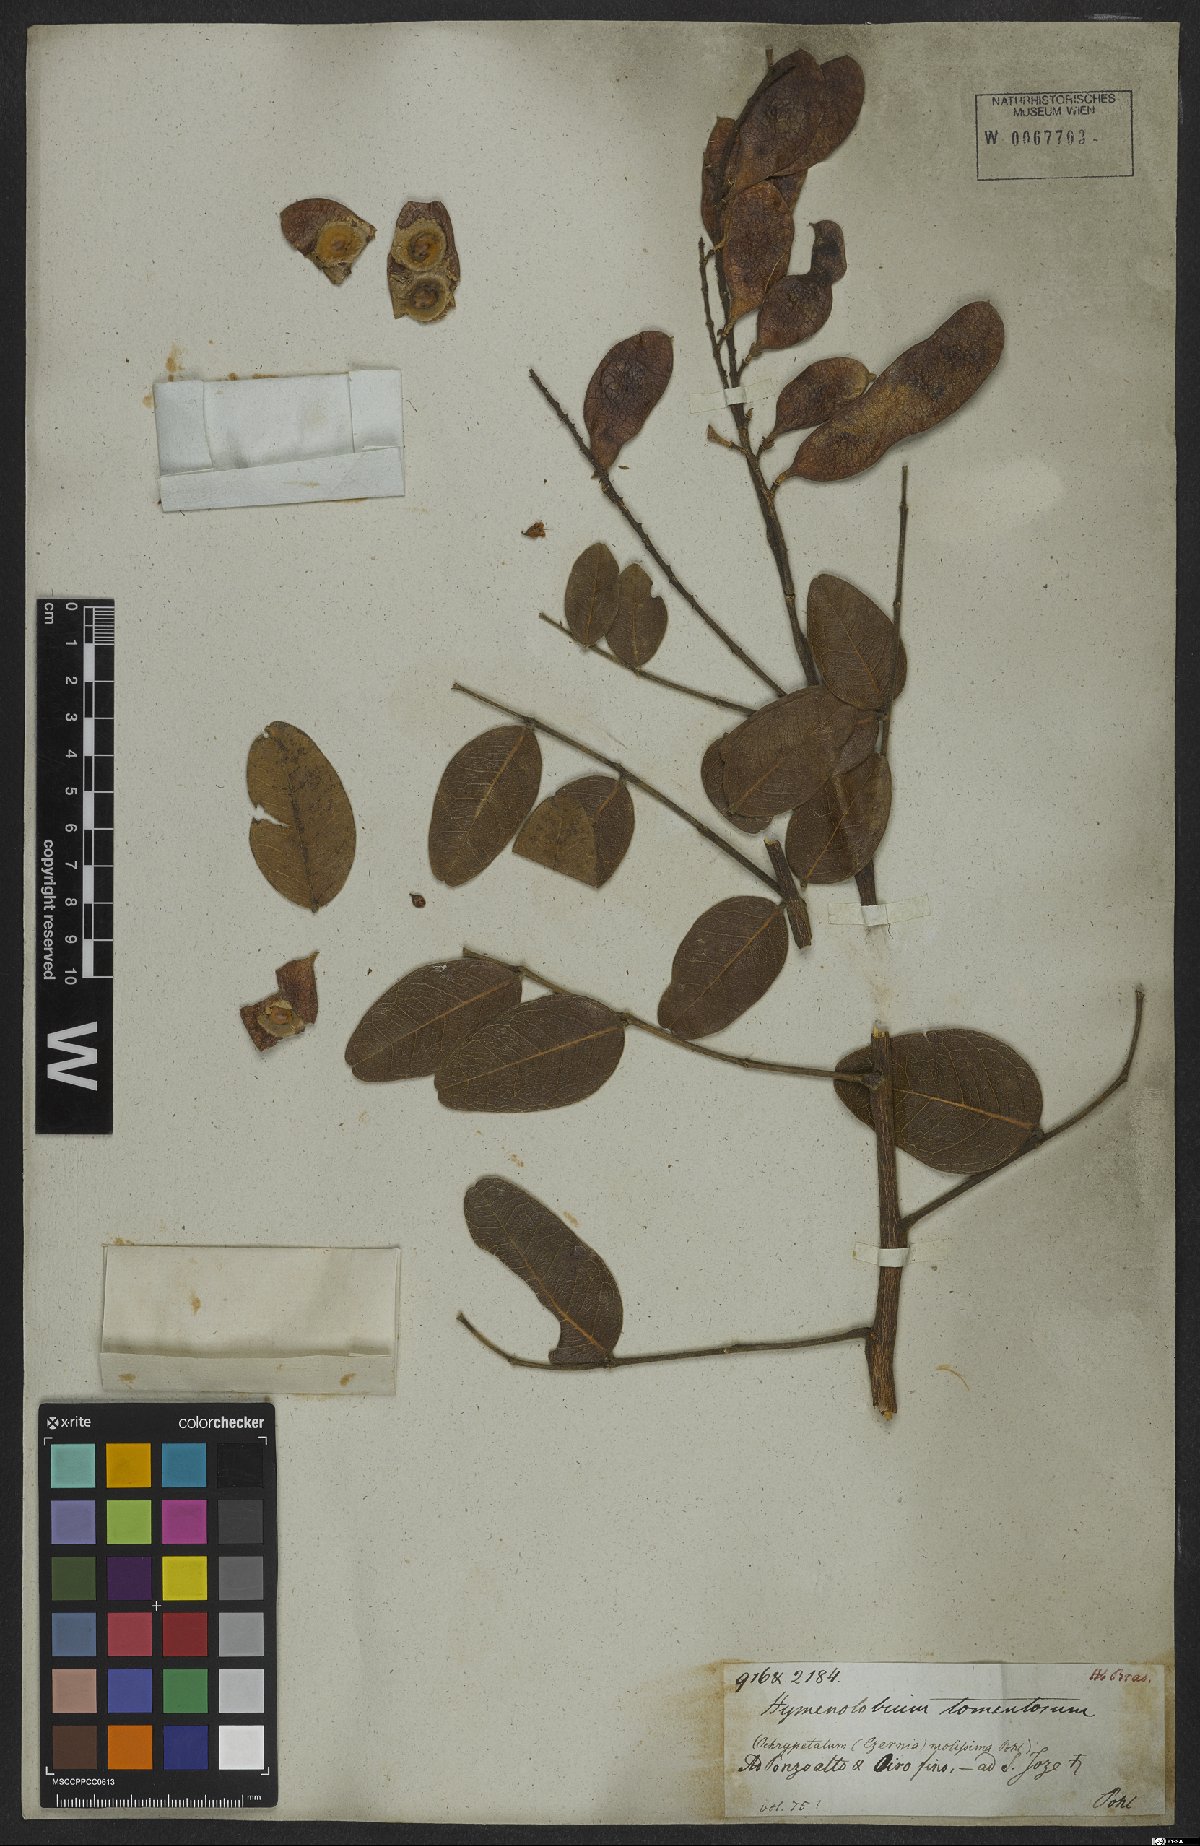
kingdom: Plantae
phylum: Tracheophyta
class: Magnoliopsida
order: Fabales
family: Fabaceae
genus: Hymenolobium
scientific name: Hymenolobium
